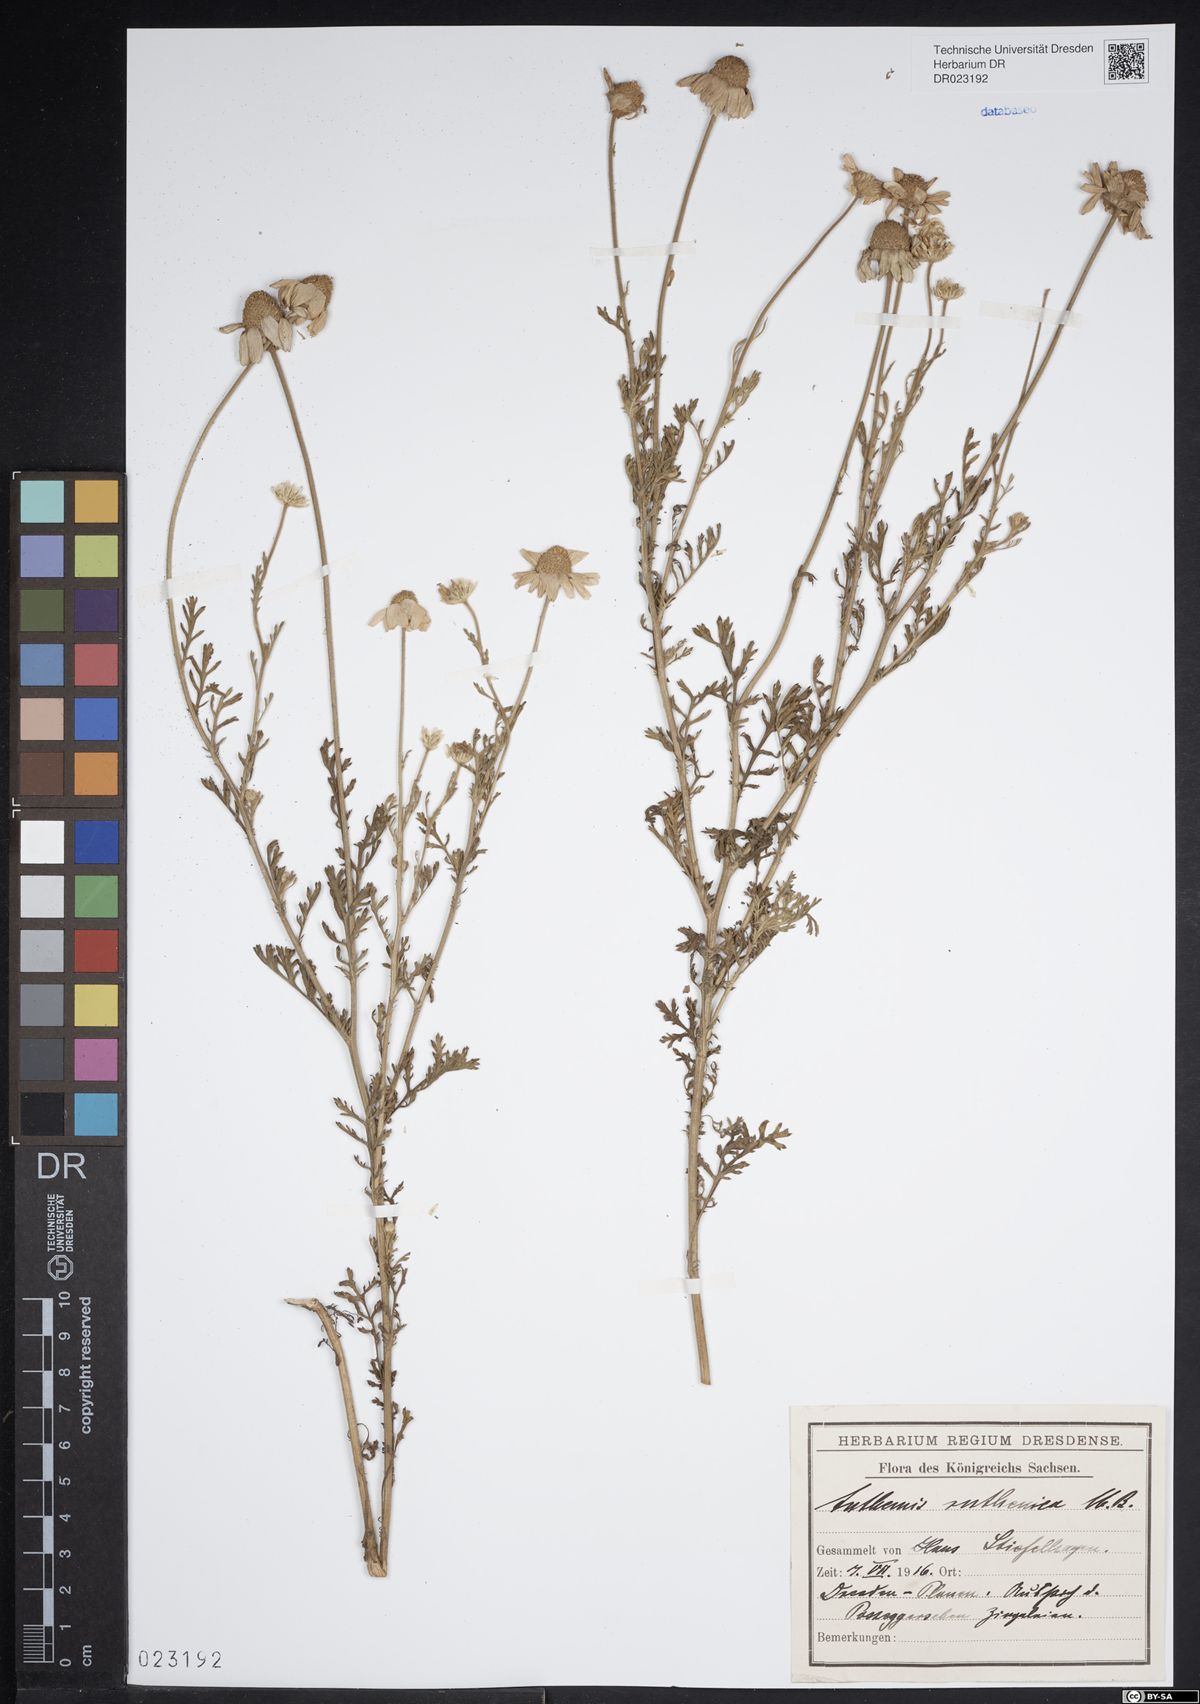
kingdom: Plantae
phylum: Tracheophyta
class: Magnoliopsida
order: Asterales
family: Asteraceae
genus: Anthemis
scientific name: Anthemis ruthenica
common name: Eastern chamomile
